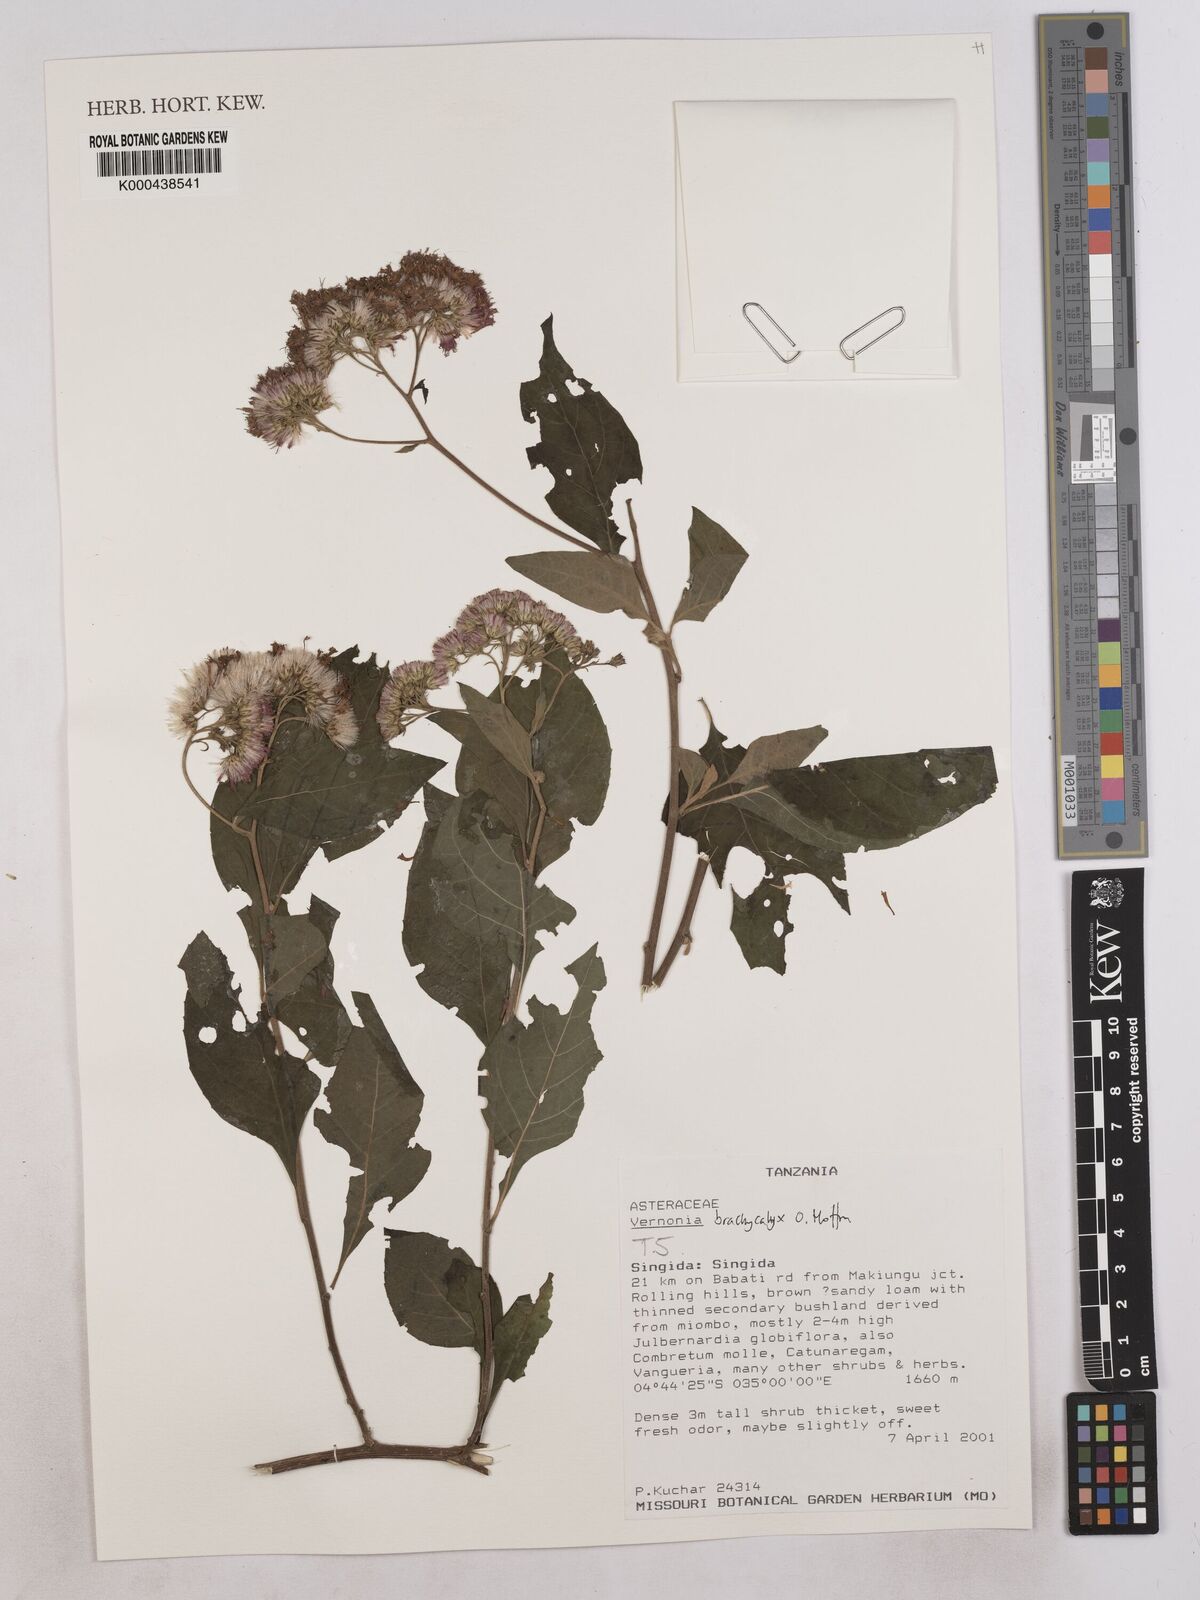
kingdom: Plantae
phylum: Tracheophyta
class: Magnoliopsida
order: Asterales
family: Asteraceae
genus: Hoffmannanthus
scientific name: Hoffmannanthus abbotianus
